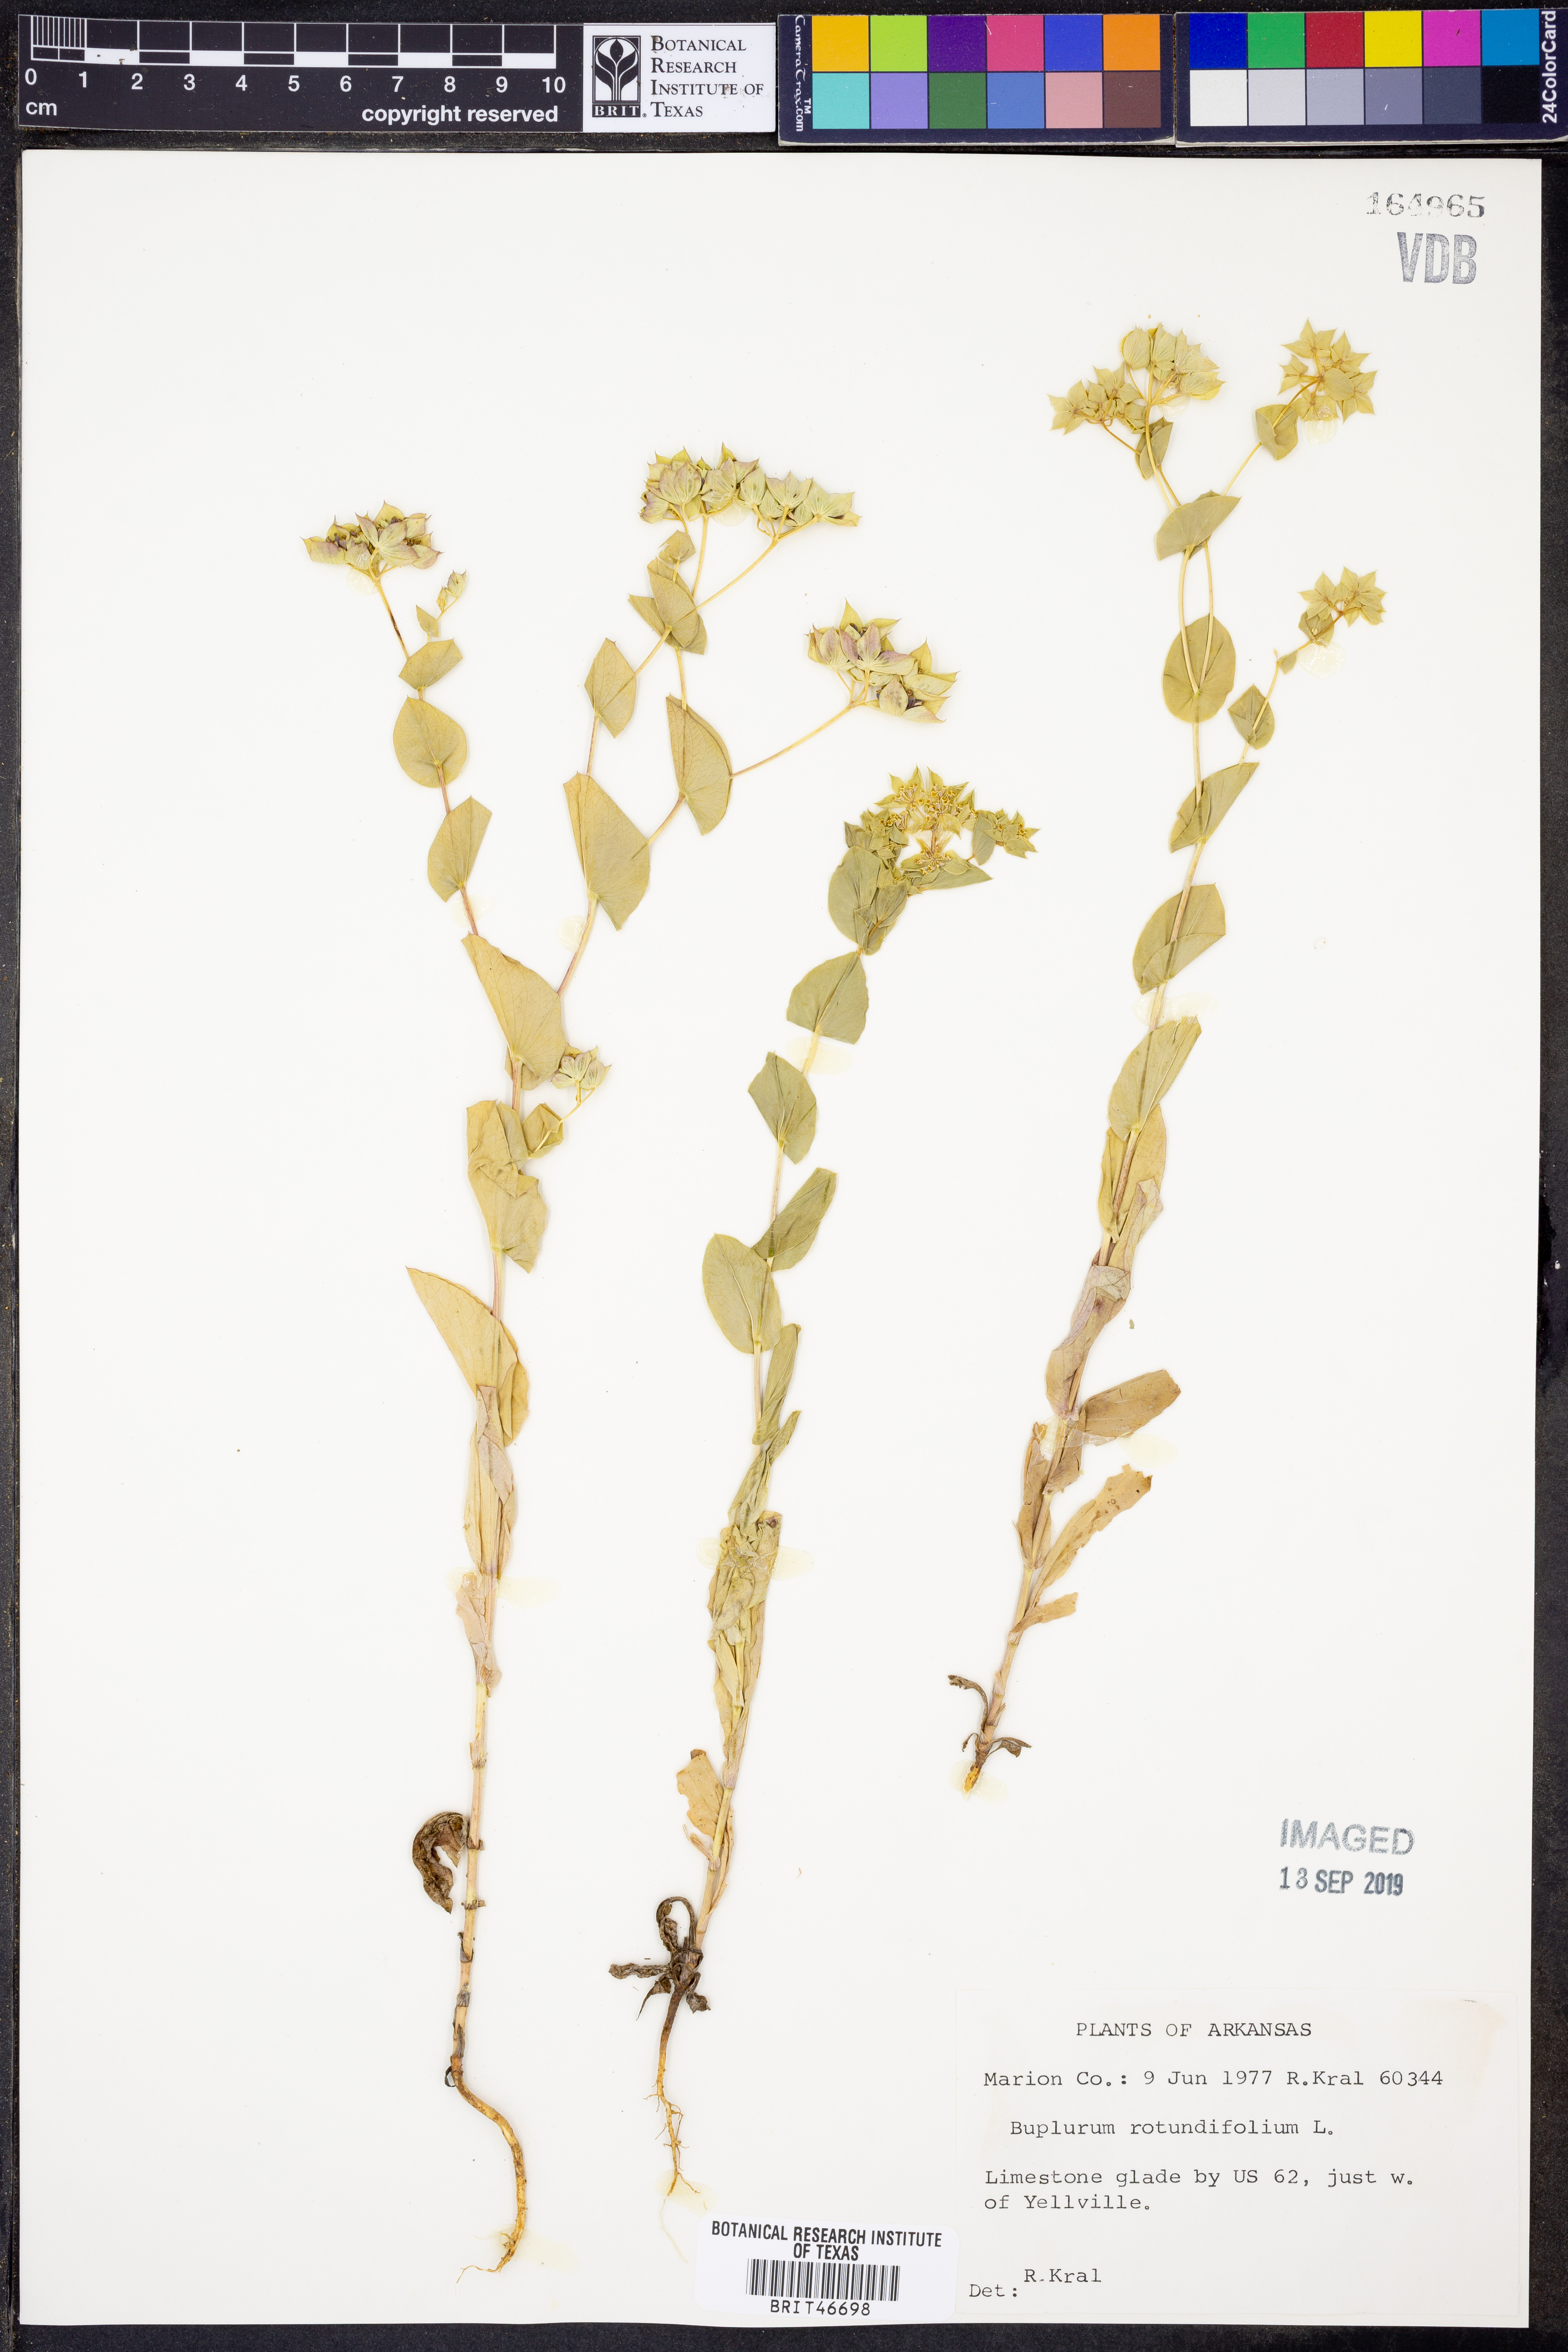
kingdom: Plantae
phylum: Tracheophyta
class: Magnoliopsida
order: Apiales
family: Apiaceae
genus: Bupleurum
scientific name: Bupleurum rotundifolium
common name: Thorow-wax
